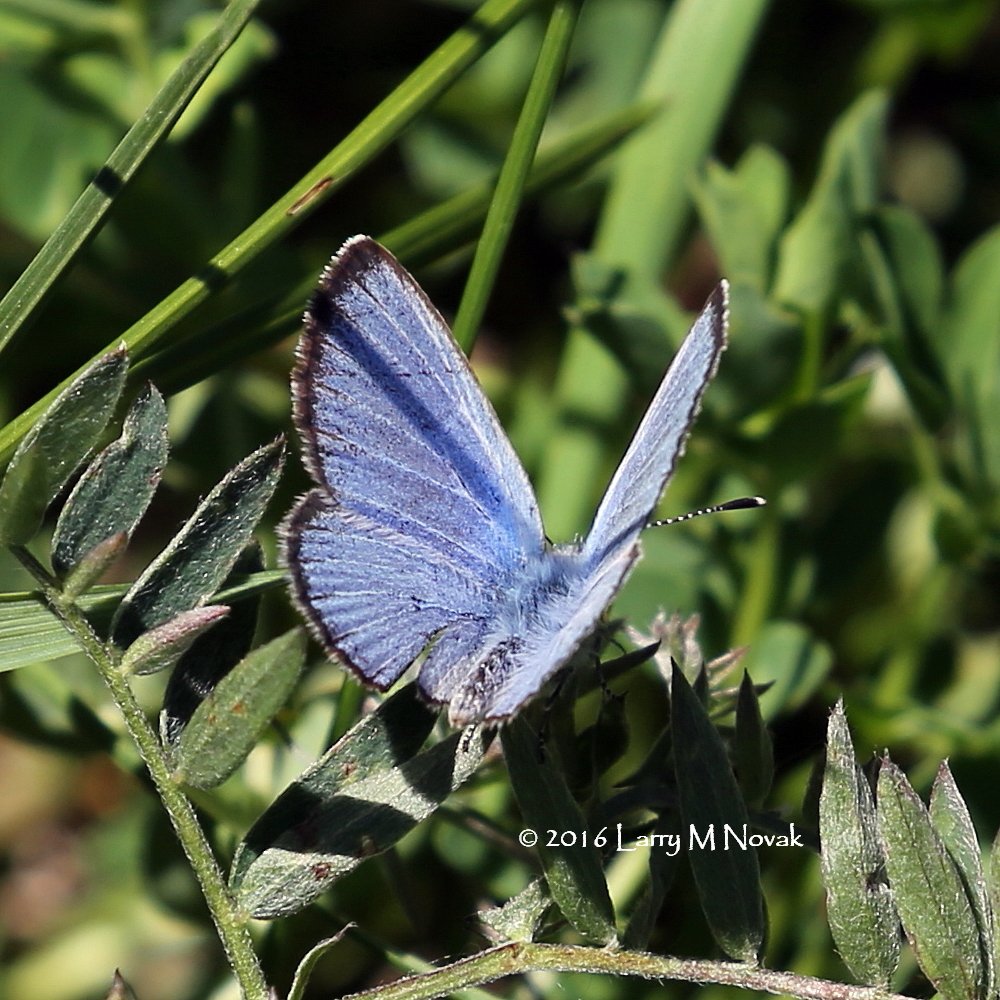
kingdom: Animalia
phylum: Arthropoda
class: Insecta
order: Lepidoptera
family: Lycaenidae
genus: Glaucopsyche
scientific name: Glaucopsyche lygdamus
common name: Silvery Blue
